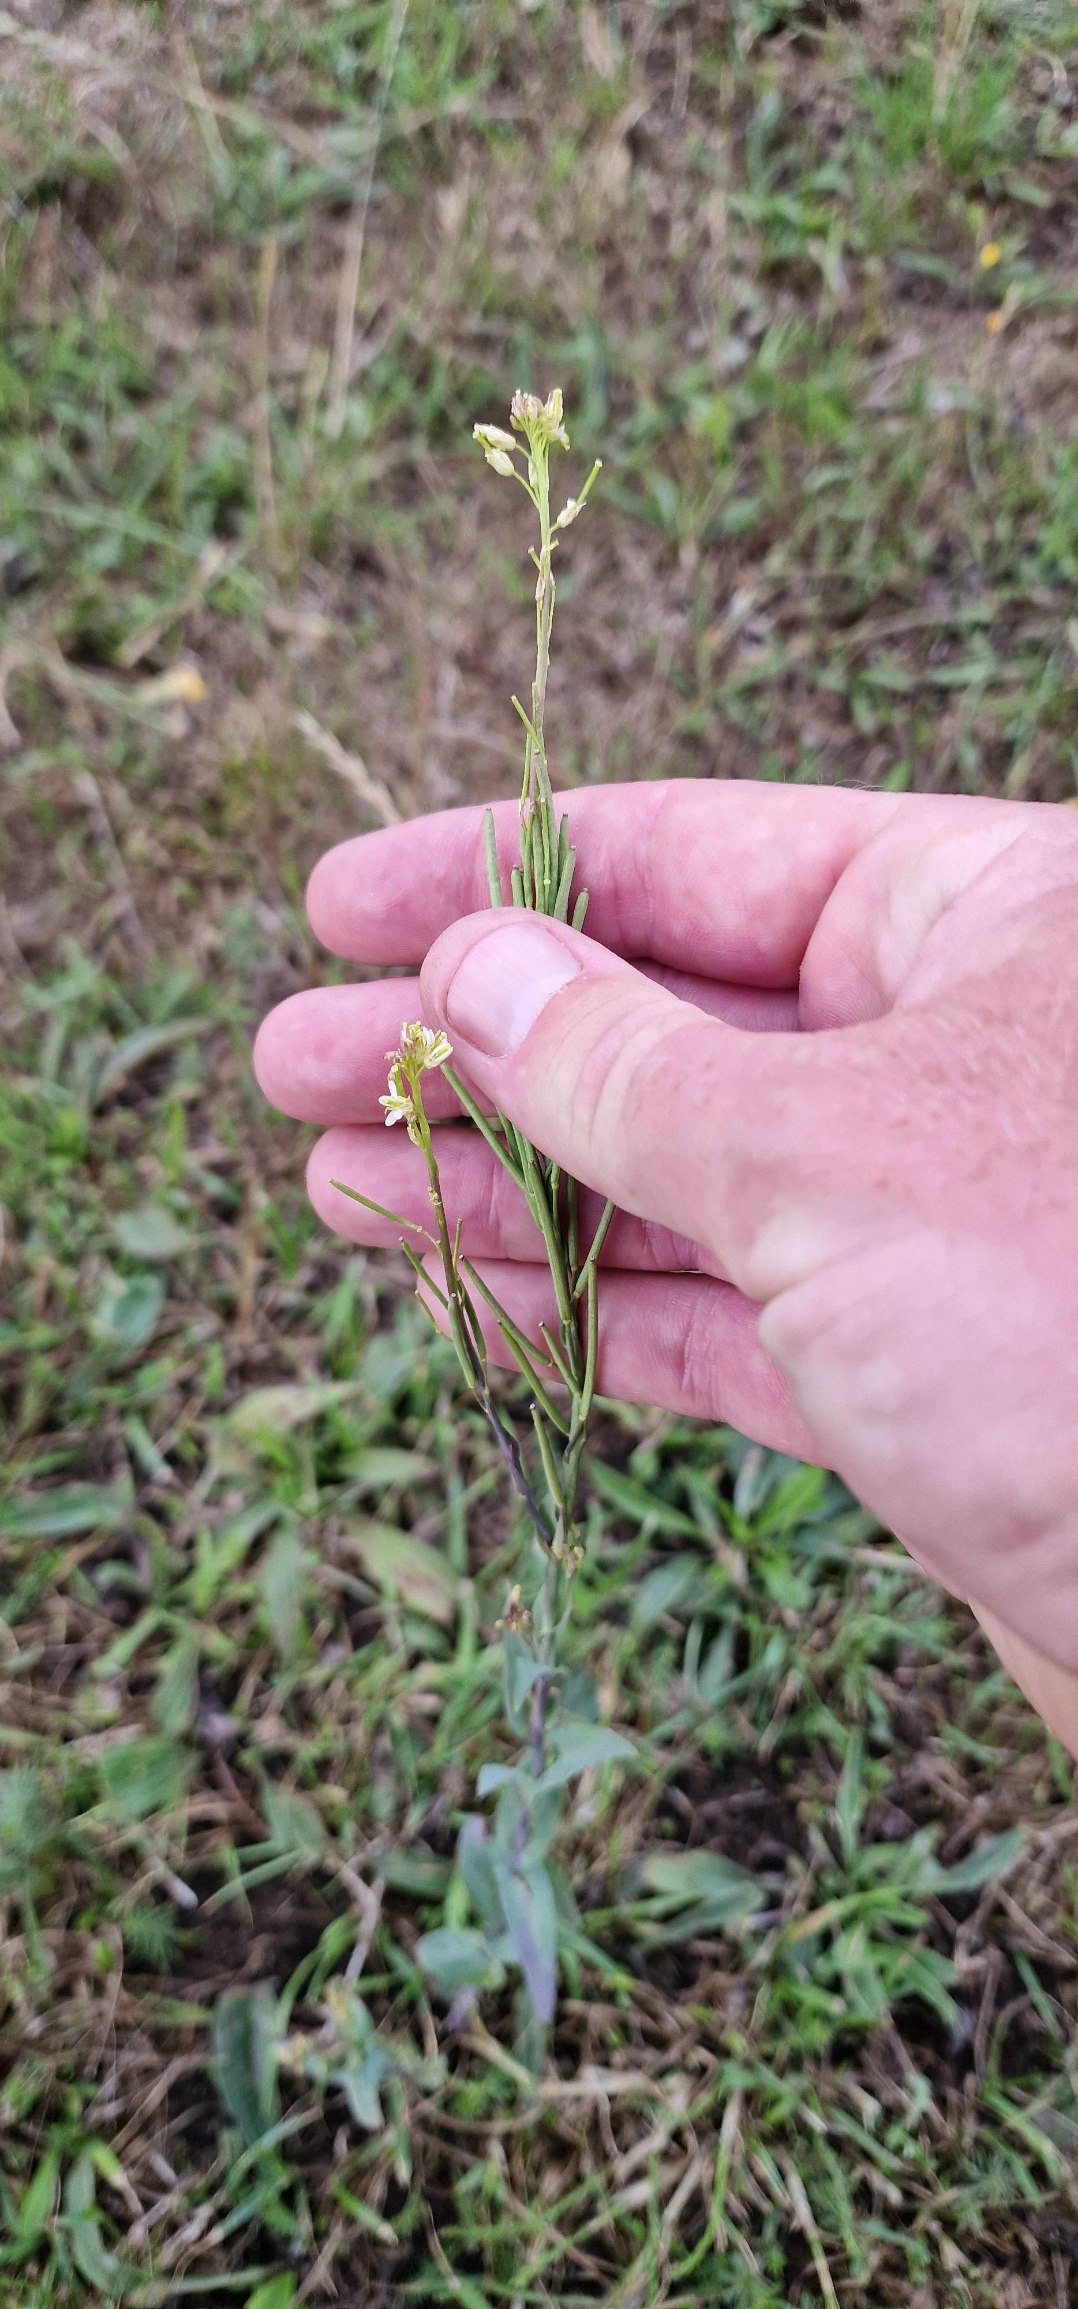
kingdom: Plantae
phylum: Tracheophyta
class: Magnoliopsida
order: Brassicales
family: Brassicaceae
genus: Turritis
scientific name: Turritis glabra
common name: Tårnurt
